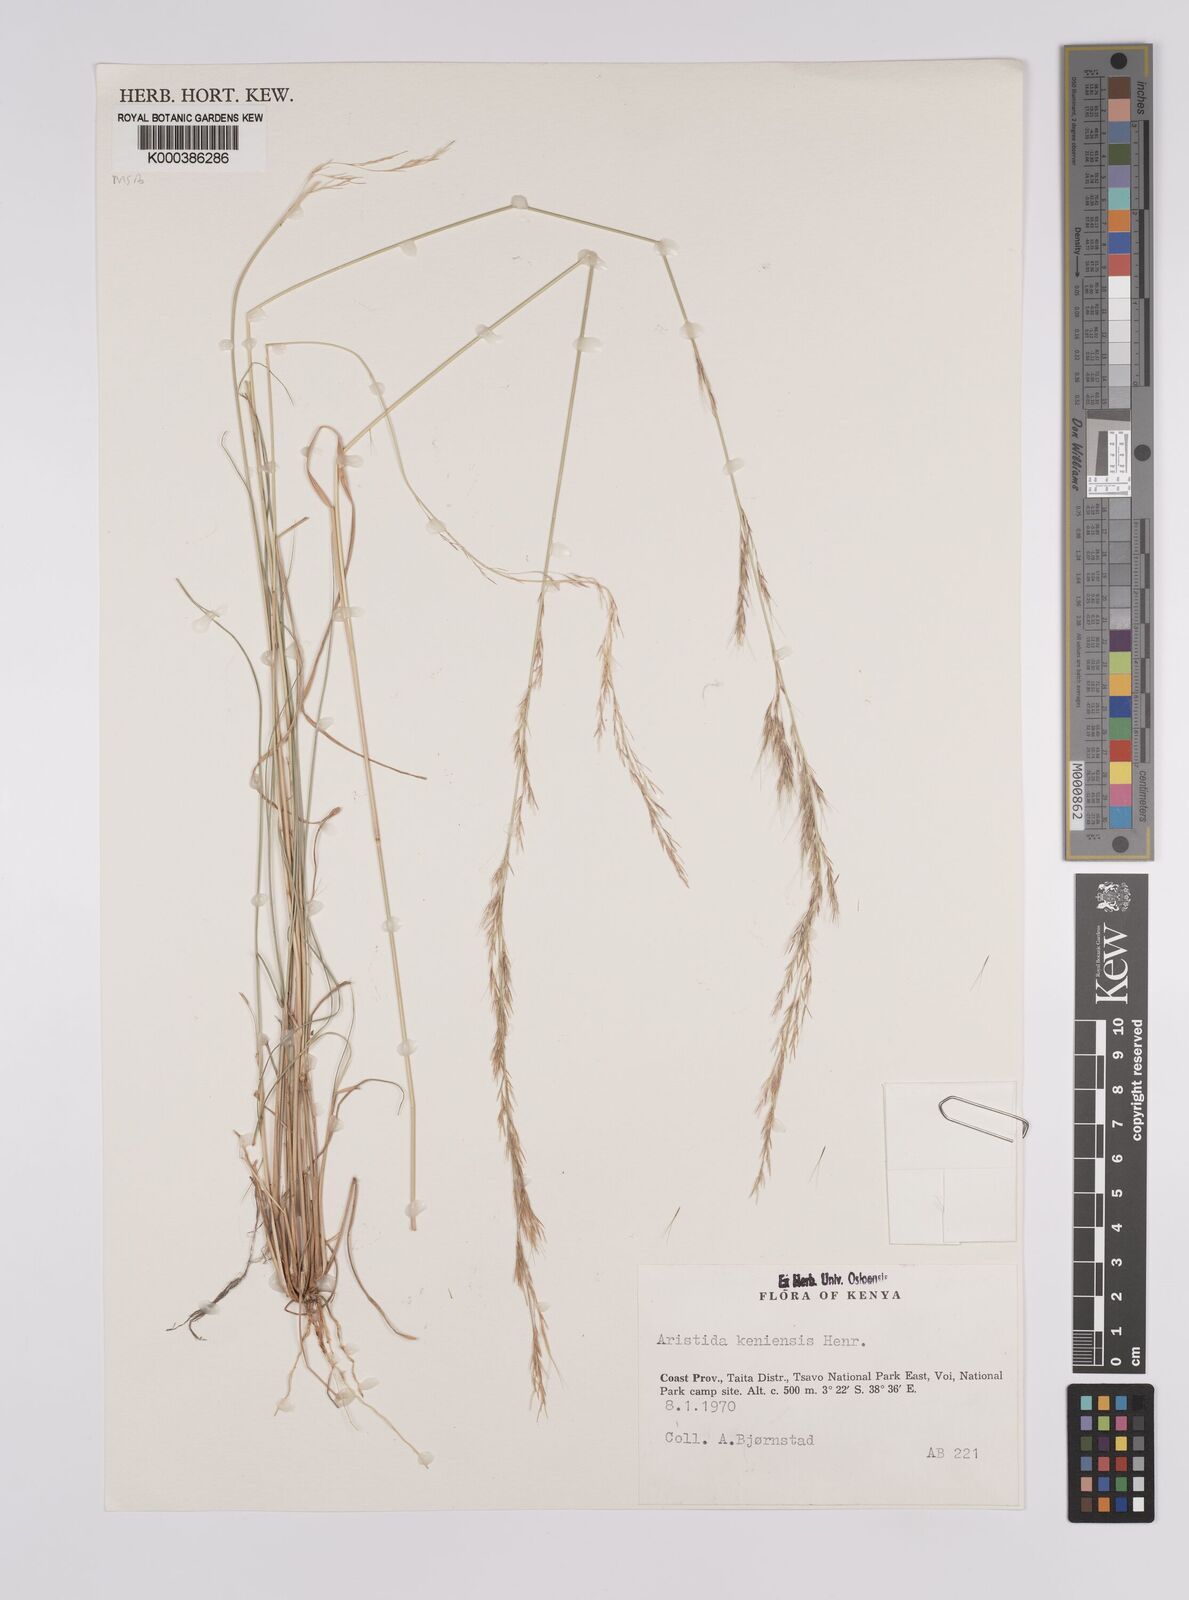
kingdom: Plantae
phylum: Tracheophyta
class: Liliopsida
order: Poales
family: Poaceae
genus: Aristida
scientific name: Aristida kenyensis
